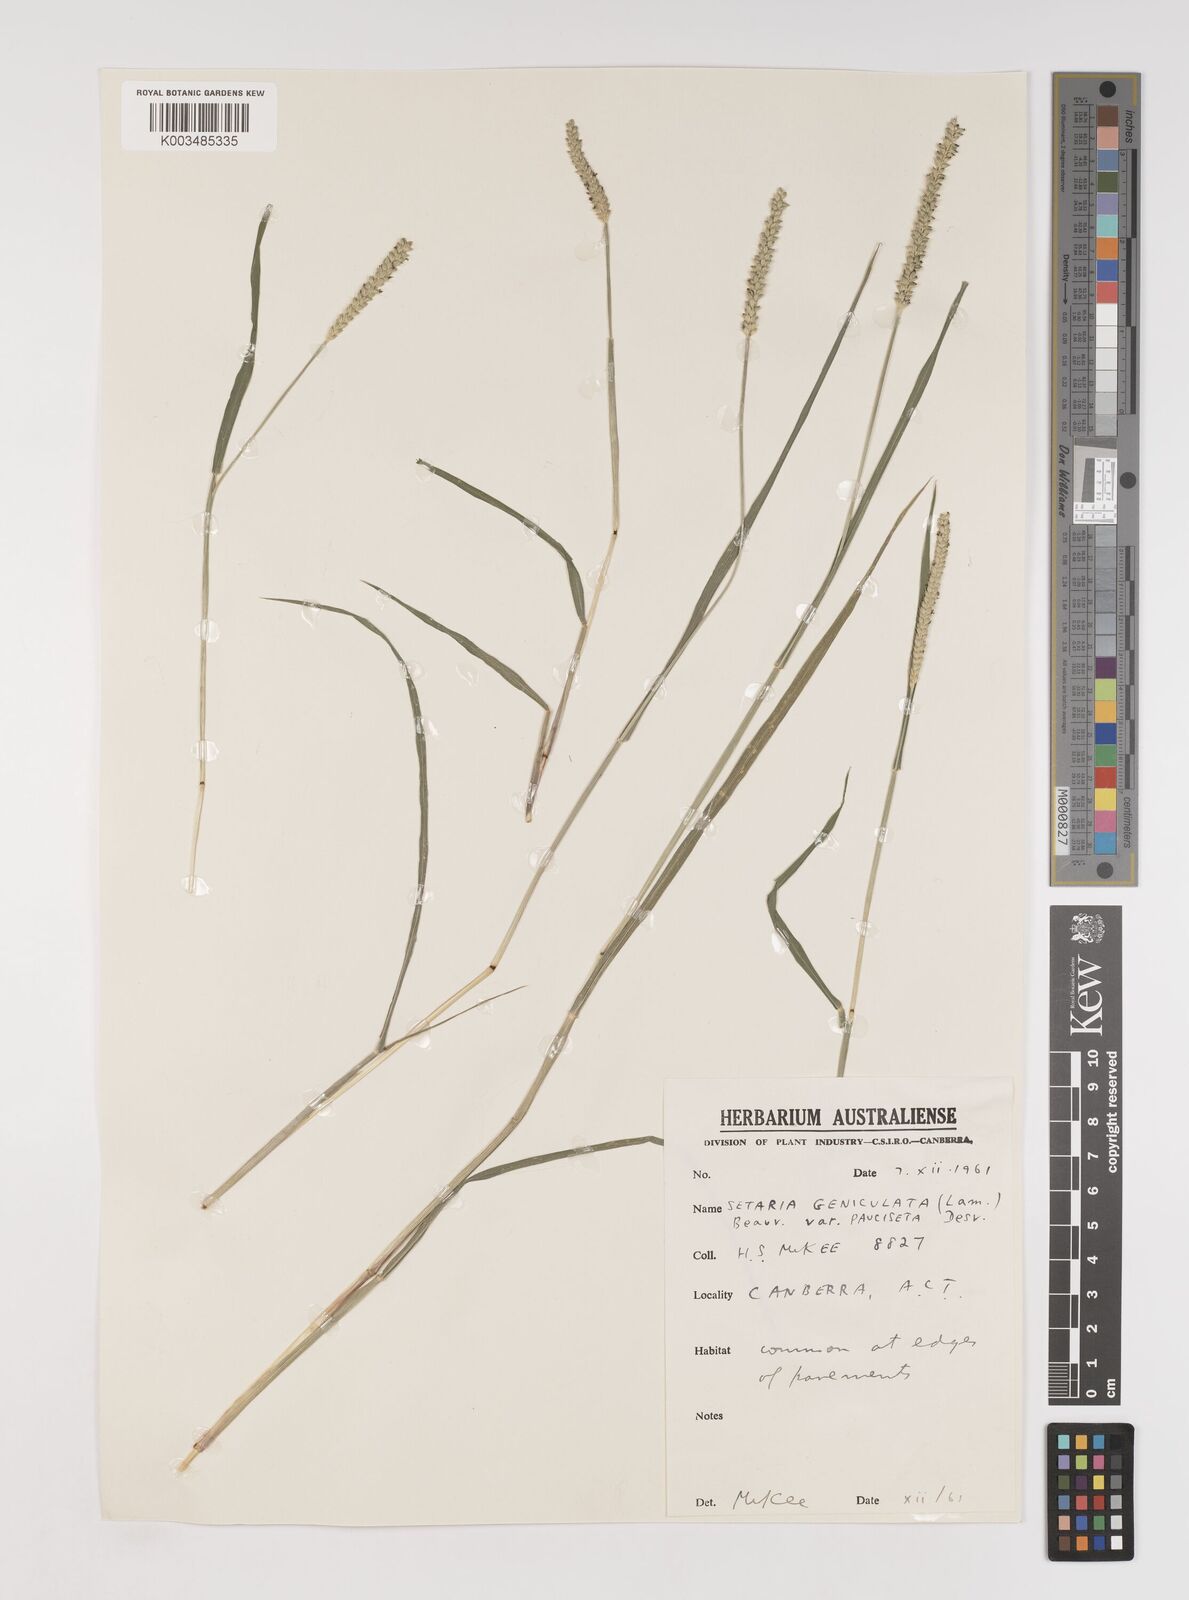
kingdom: Plantae
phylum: Tracheophyta
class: Liliopsida
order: Poales
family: Poaceae
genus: Setaria
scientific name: Setaria parviflora
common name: Knotroot bristle-grass
